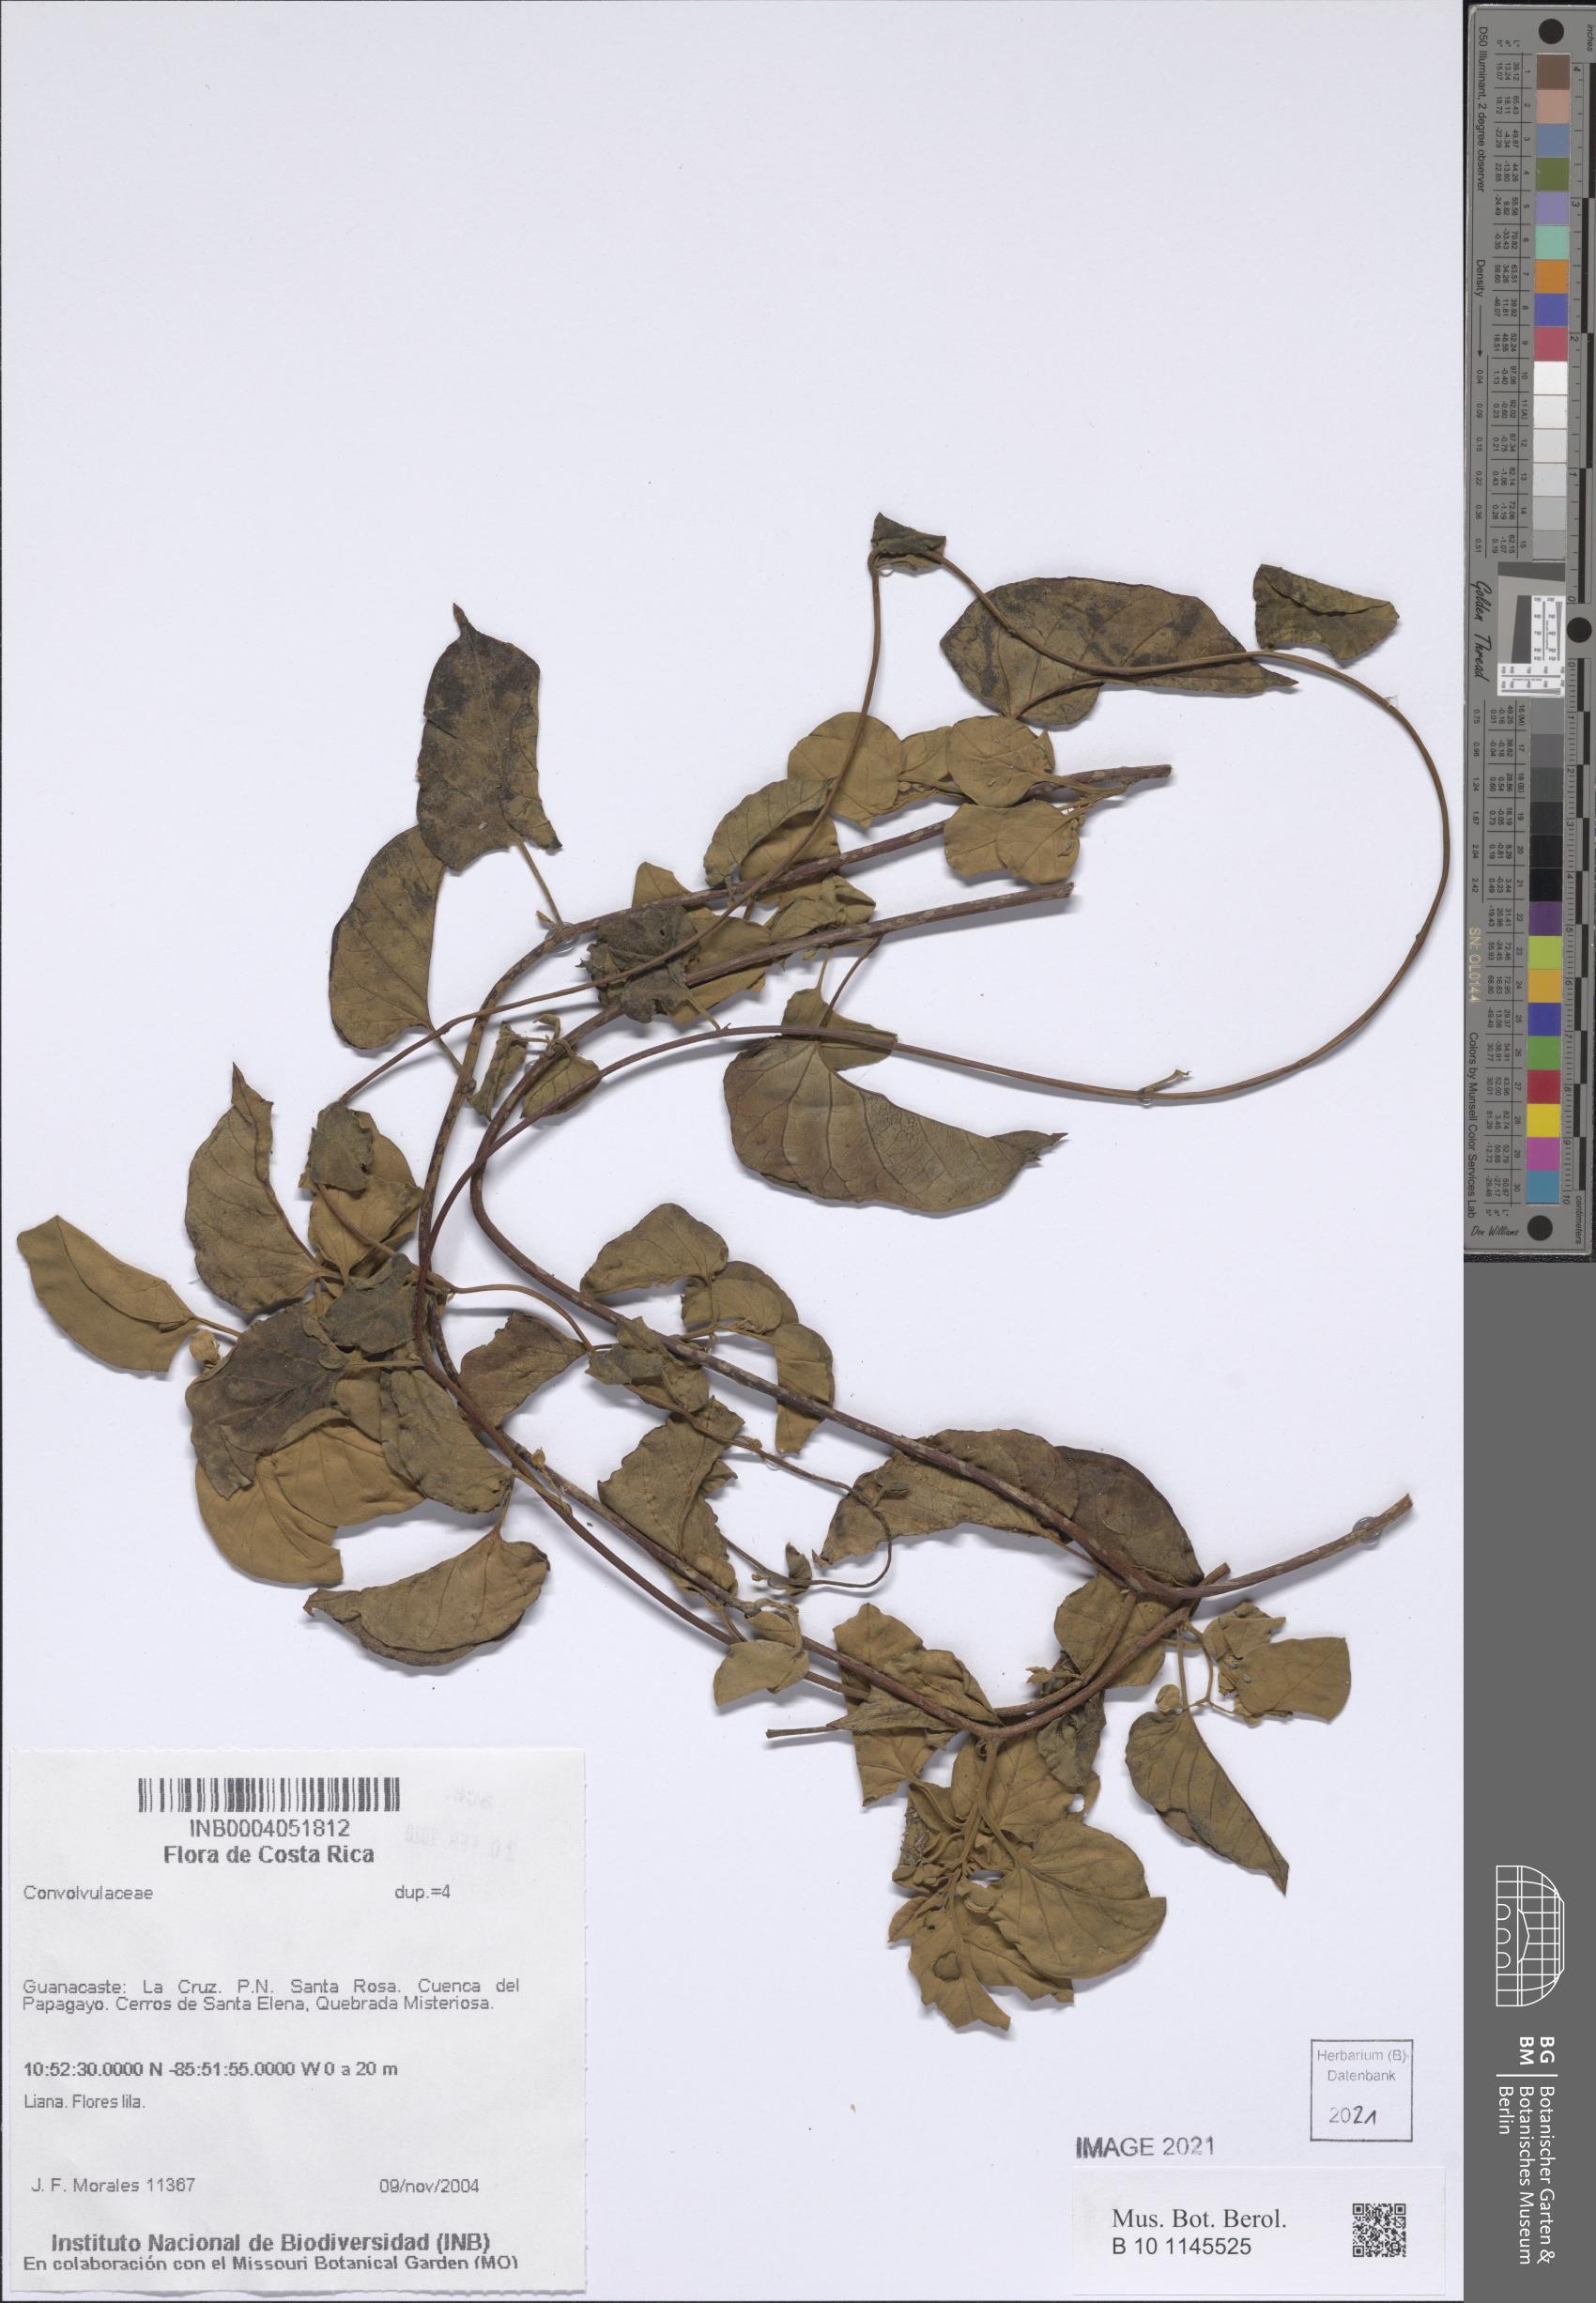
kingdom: Plantae
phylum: Tracheophyta
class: Magnoliopsida
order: Solanales
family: Convolvulaceae
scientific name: Convolvulaceae
